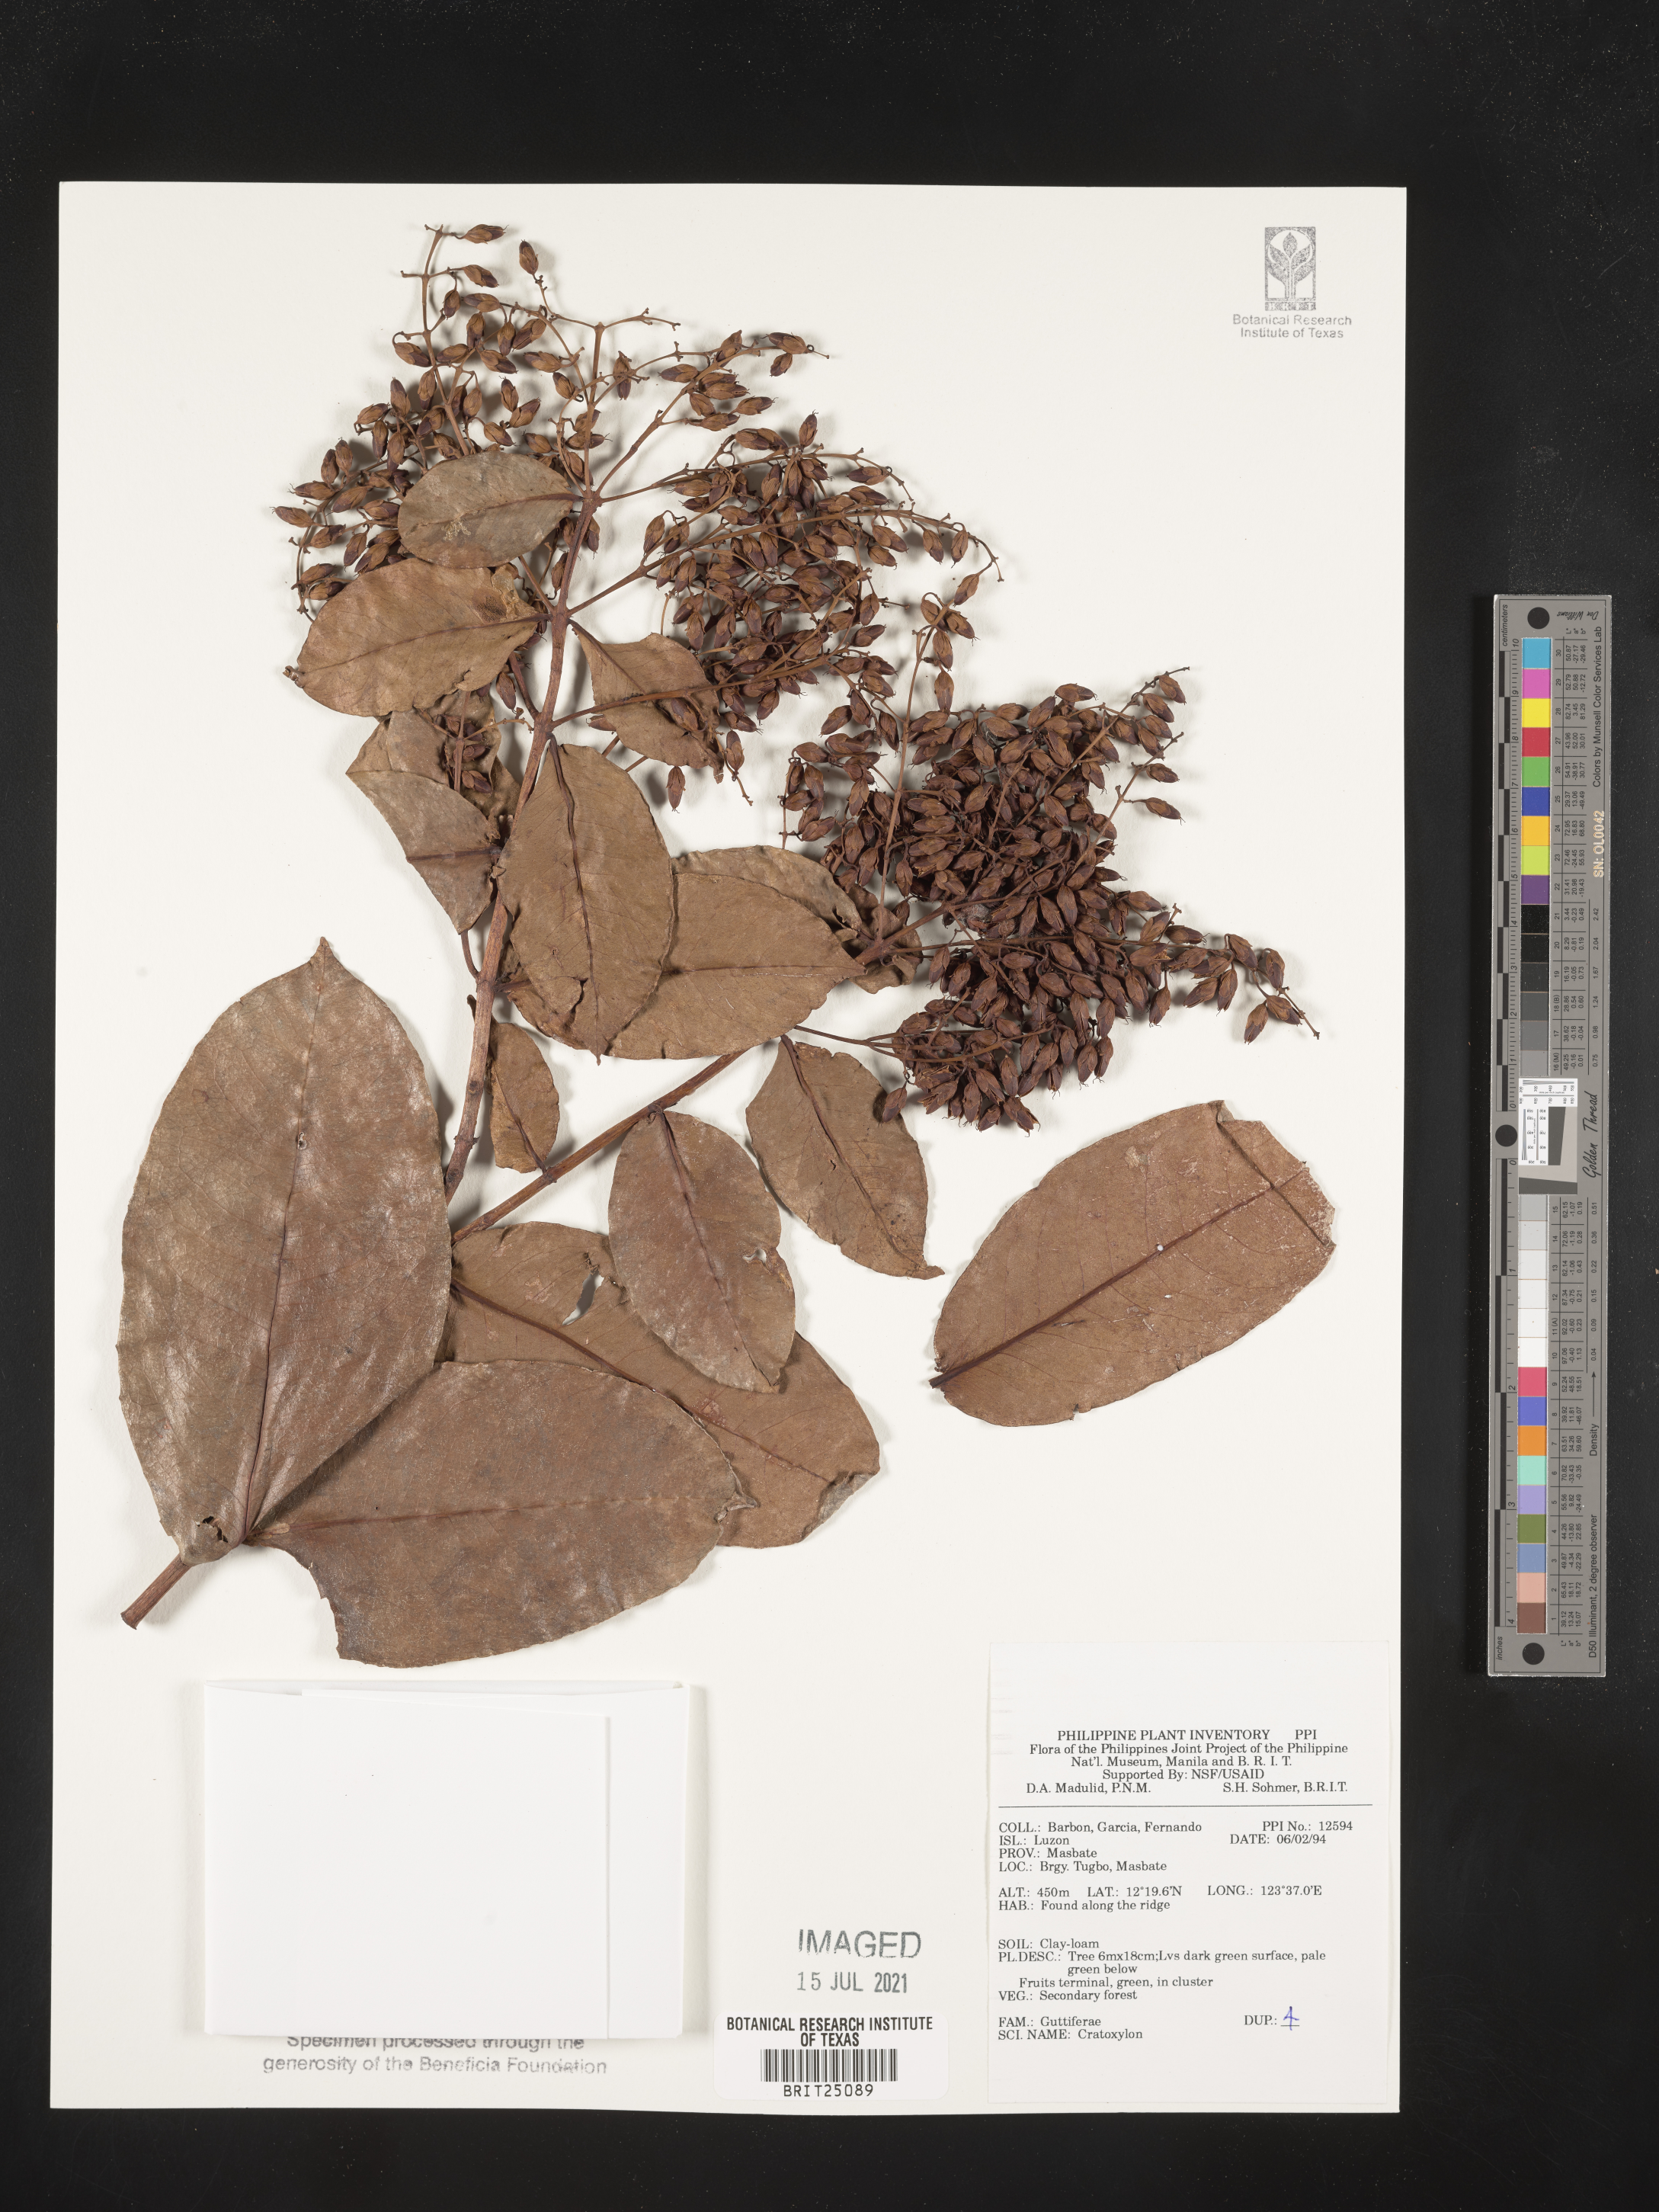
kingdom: Plantae
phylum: Tracheophyta
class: Magnoliopsida
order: Malpighiales
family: Hypericaceae
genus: Cratoxylum
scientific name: Cratoxylum
